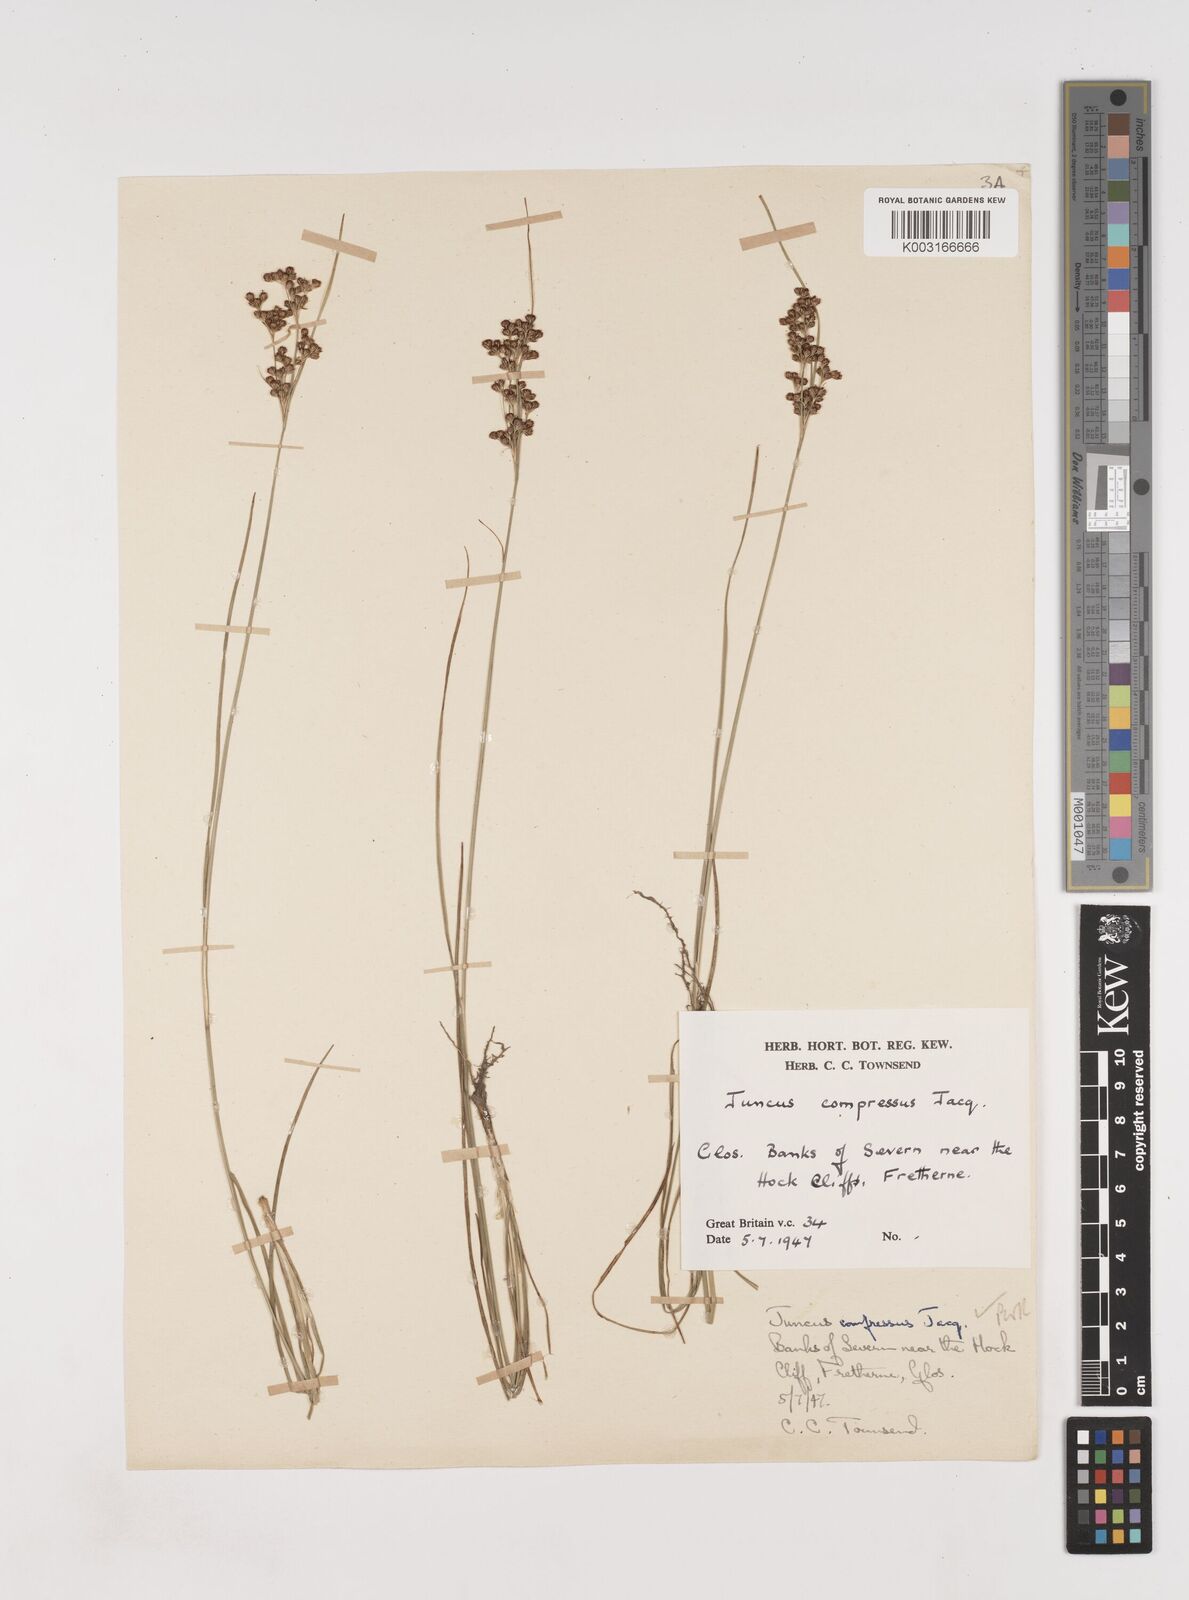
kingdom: Plantae
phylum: Tracheophyta
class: Liliopsida
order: Poales
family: Juncaceae
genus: Juncus
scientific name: Juncus compressus
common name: Round-fruited rush
